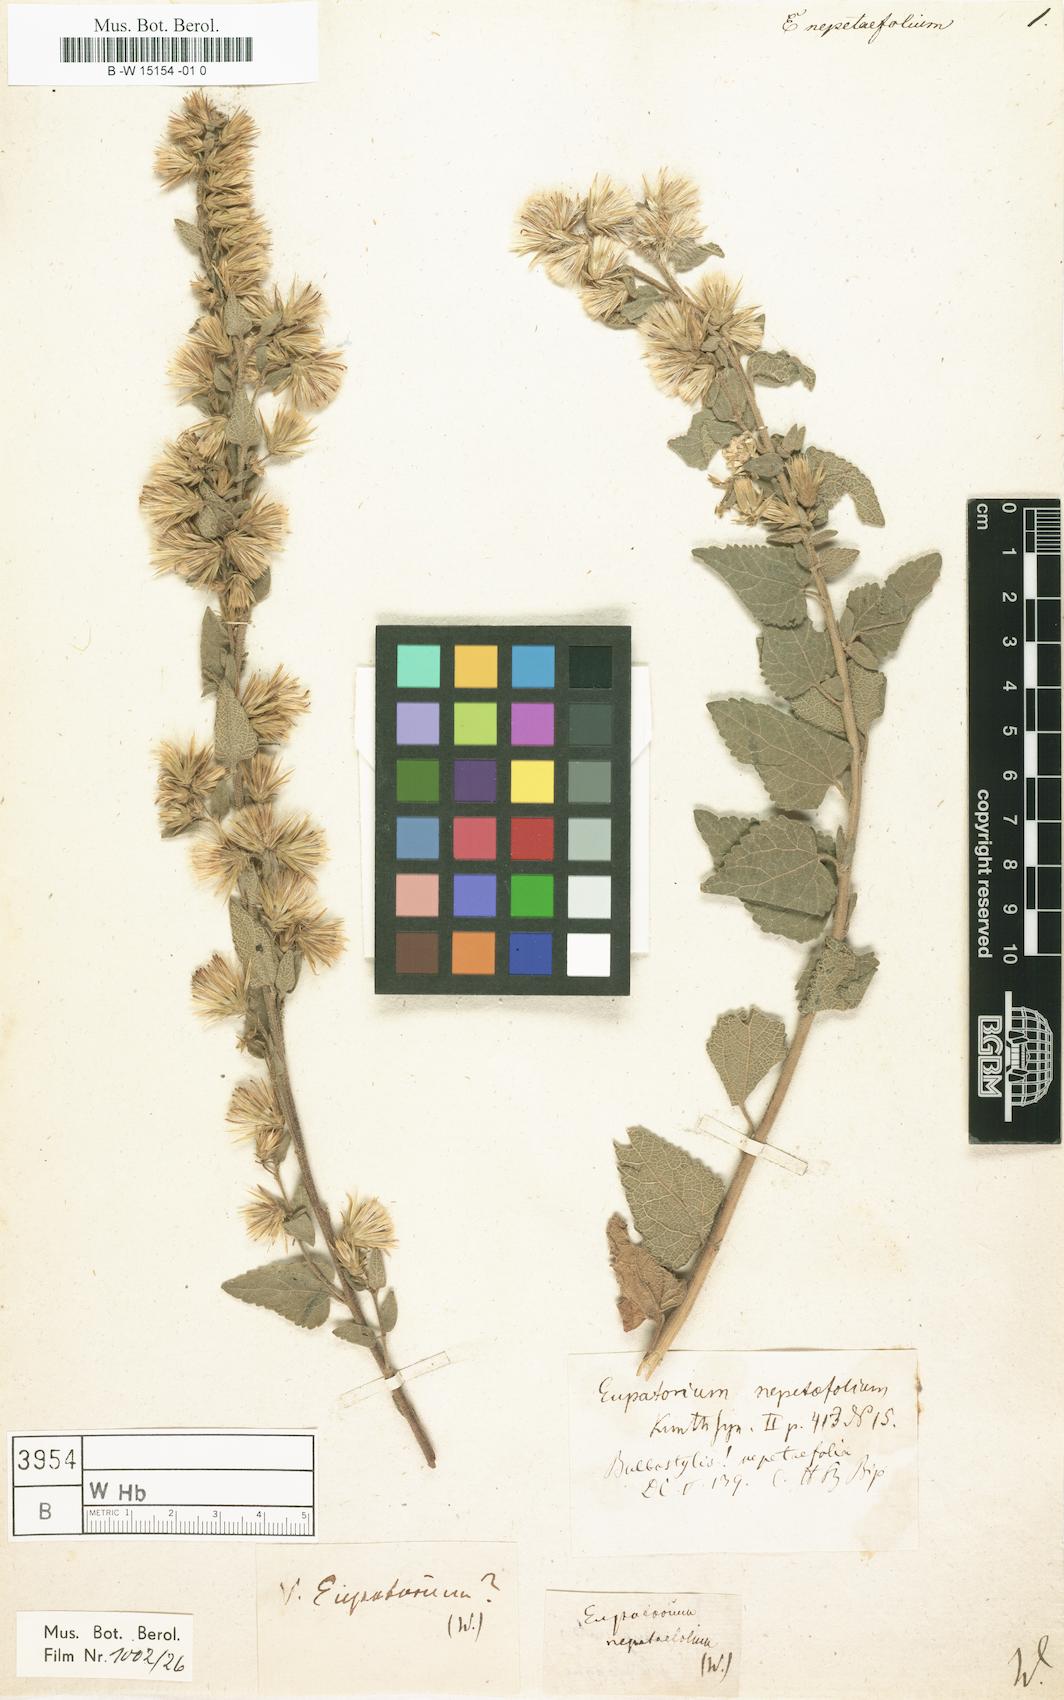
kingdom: Plantae
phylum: Tracheophyta
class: Magnoliopsida
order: Asterales
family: Asteraceae
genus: Eupatorium
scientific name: Eupatorium nepetifolium
